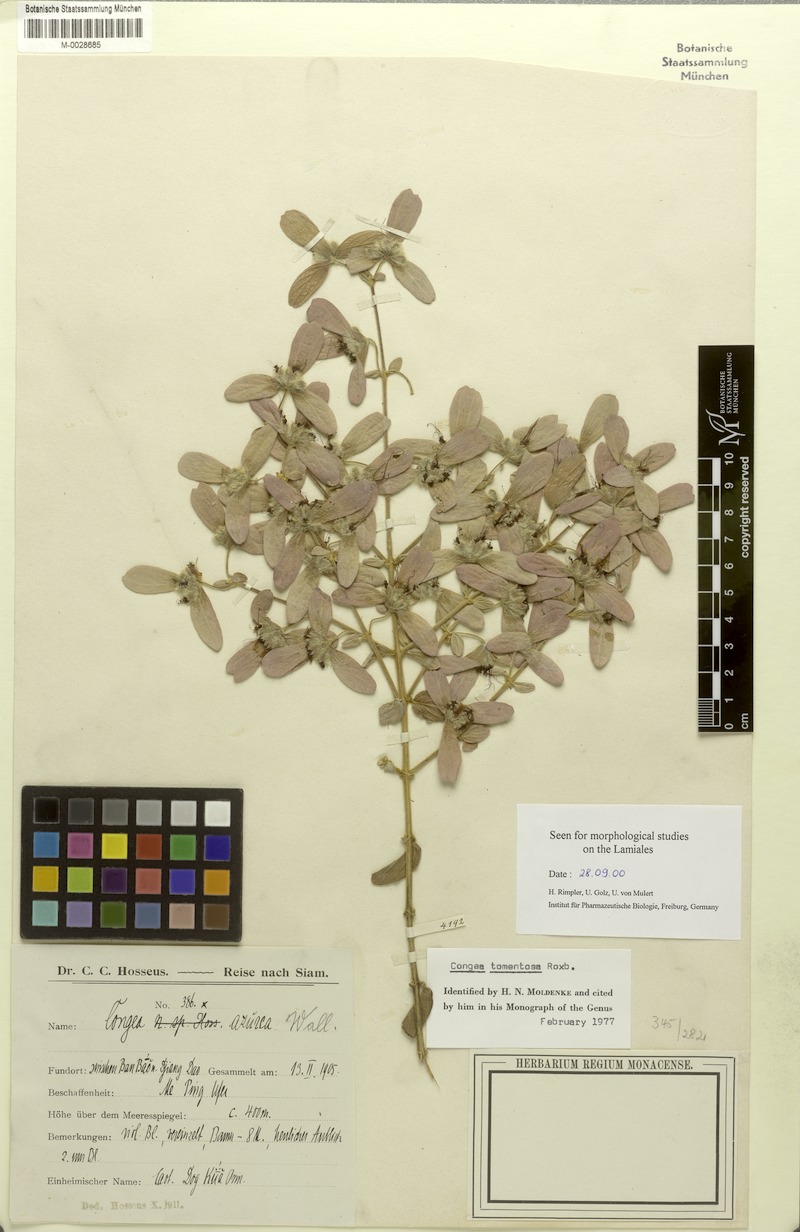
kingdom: Plantae
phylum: Tracheophyta
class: Magnoliopsida
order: Lamiales
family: Lamiaceae
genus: Congea
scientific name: Congea tomentosa
